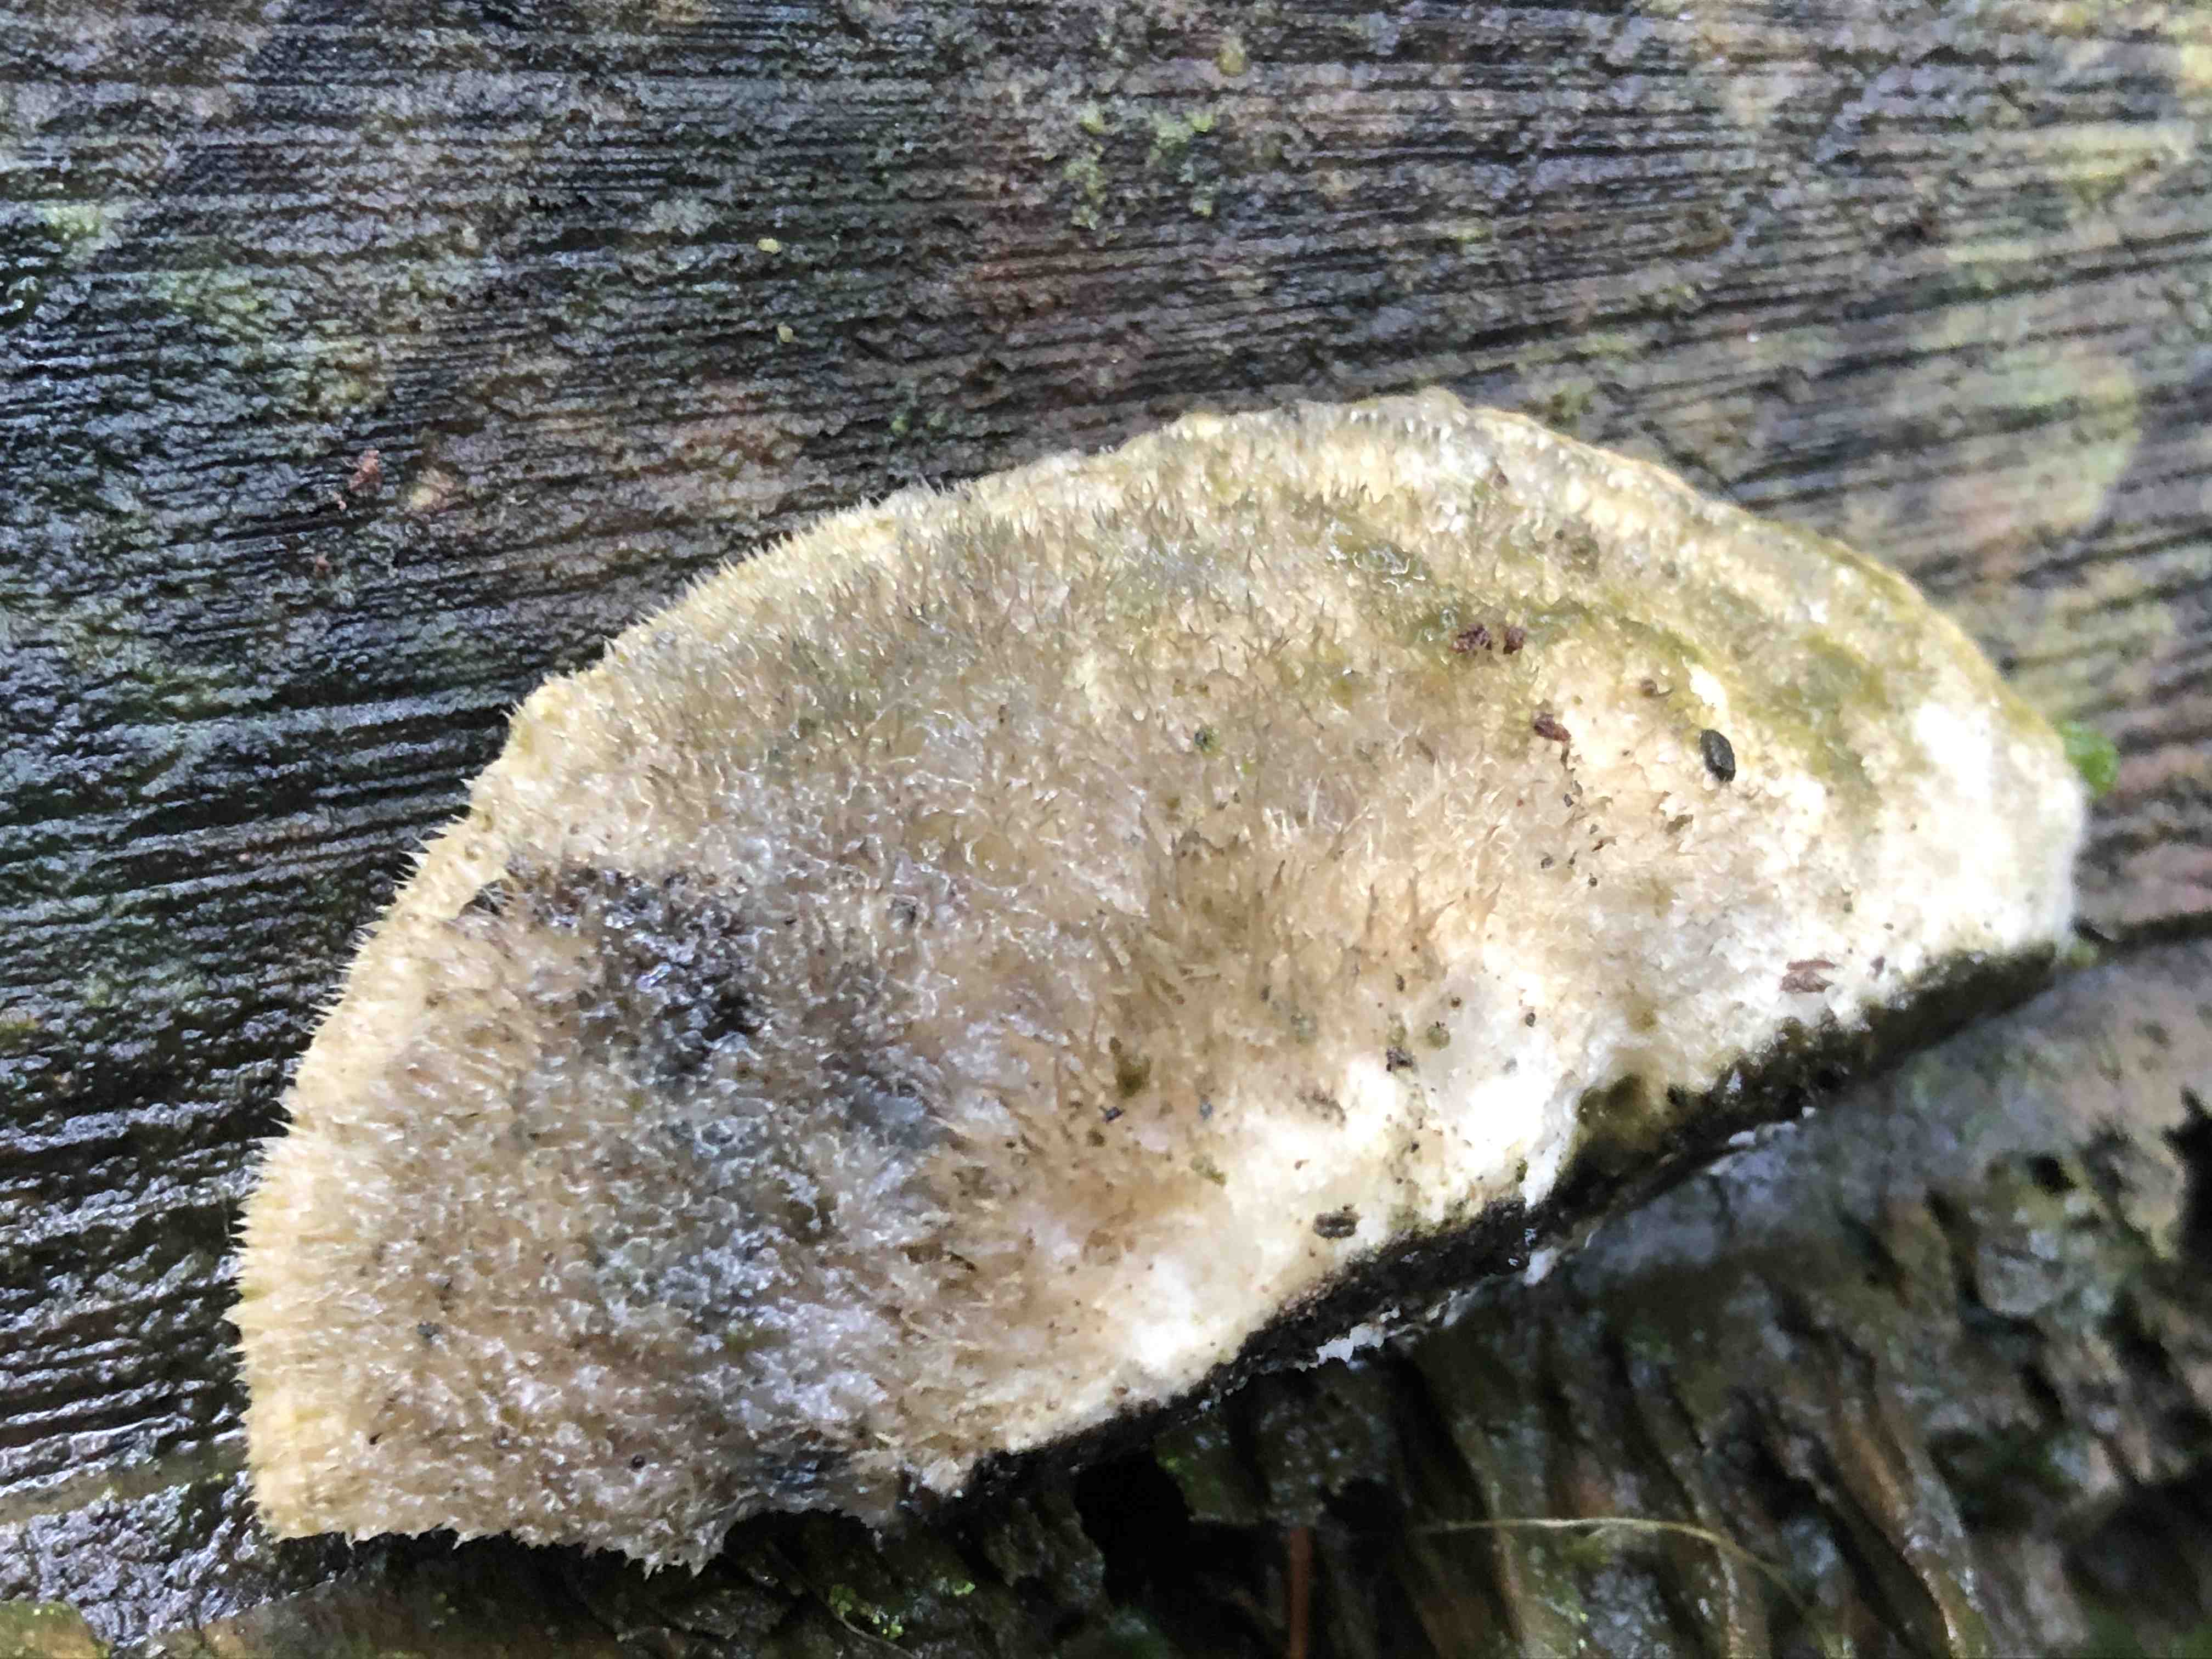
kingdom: Fungi
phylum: Basidiomycota
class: Agaricomycetes
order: Polyporales
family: Polyporaceae
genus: Cyanosporus
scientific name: Cyanosporus caesius
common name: blålig kødporesvamp
